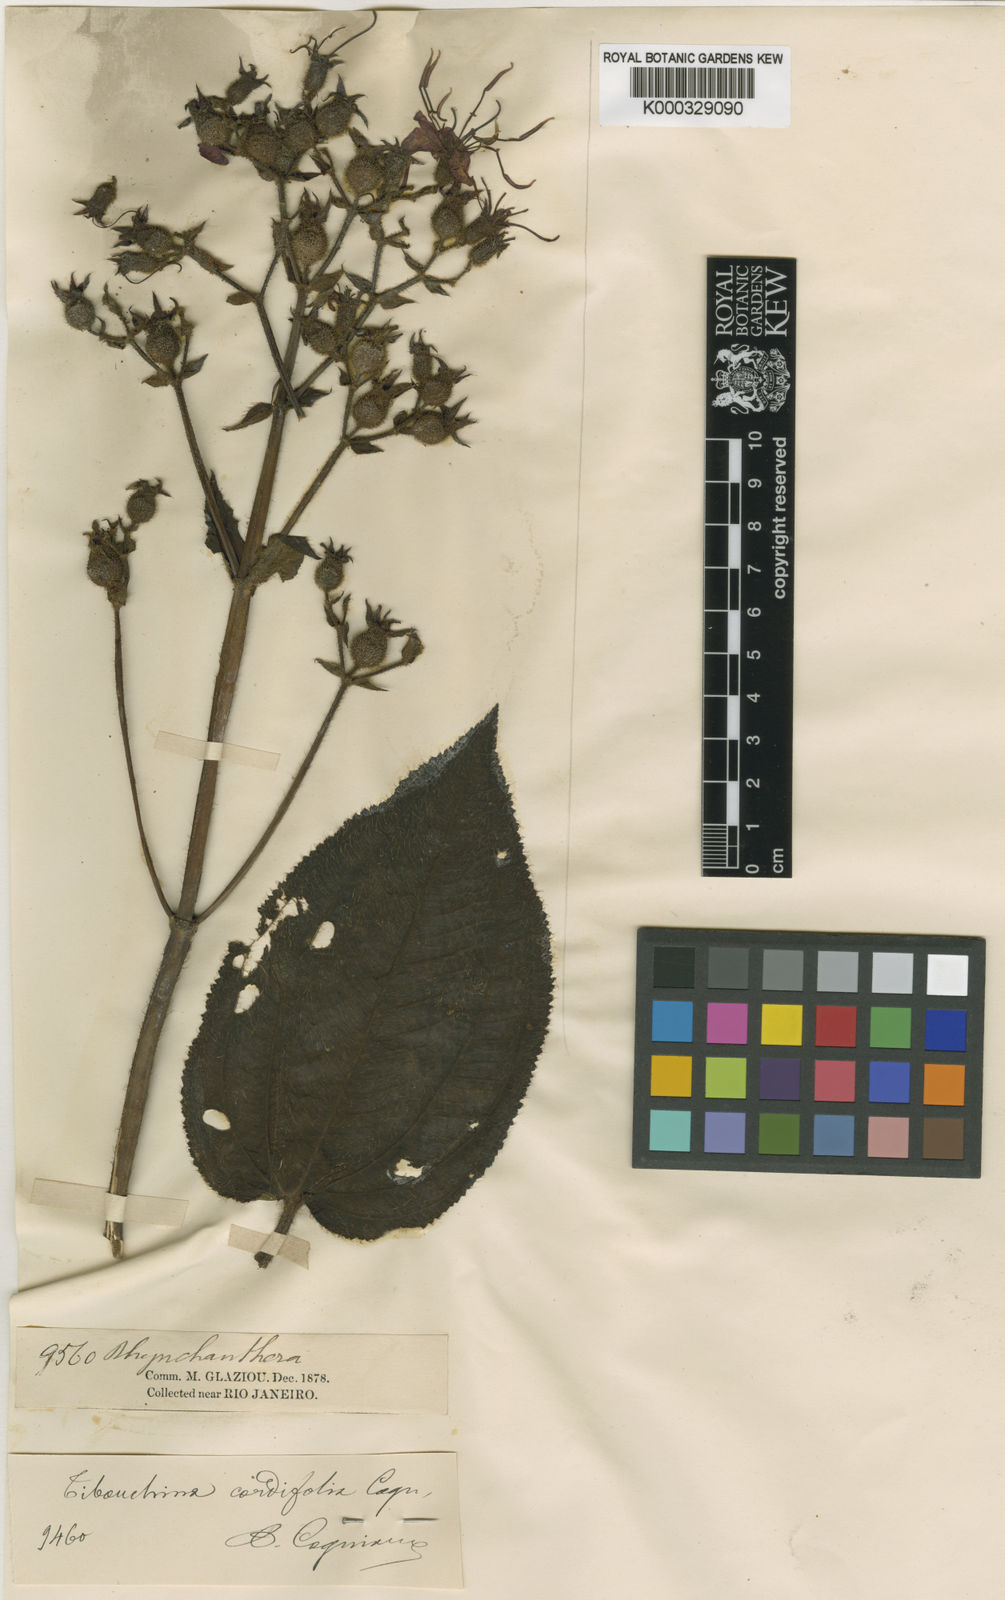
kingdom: Plantae
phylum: Tracheophyta
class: Magnoliopsida
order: Myrtales
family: Melastomataceae
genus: Pleroma
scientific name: Pleroma cordifolium
